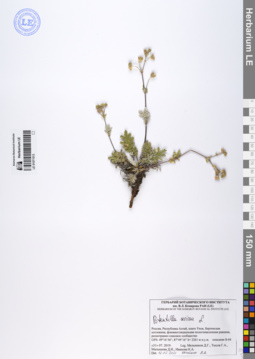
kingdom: Plantae
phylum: Tracheophyta
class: Magnoliopsida
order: Rosales
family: Rosaceae
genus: Potentilla
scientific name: Potentilla sericea
